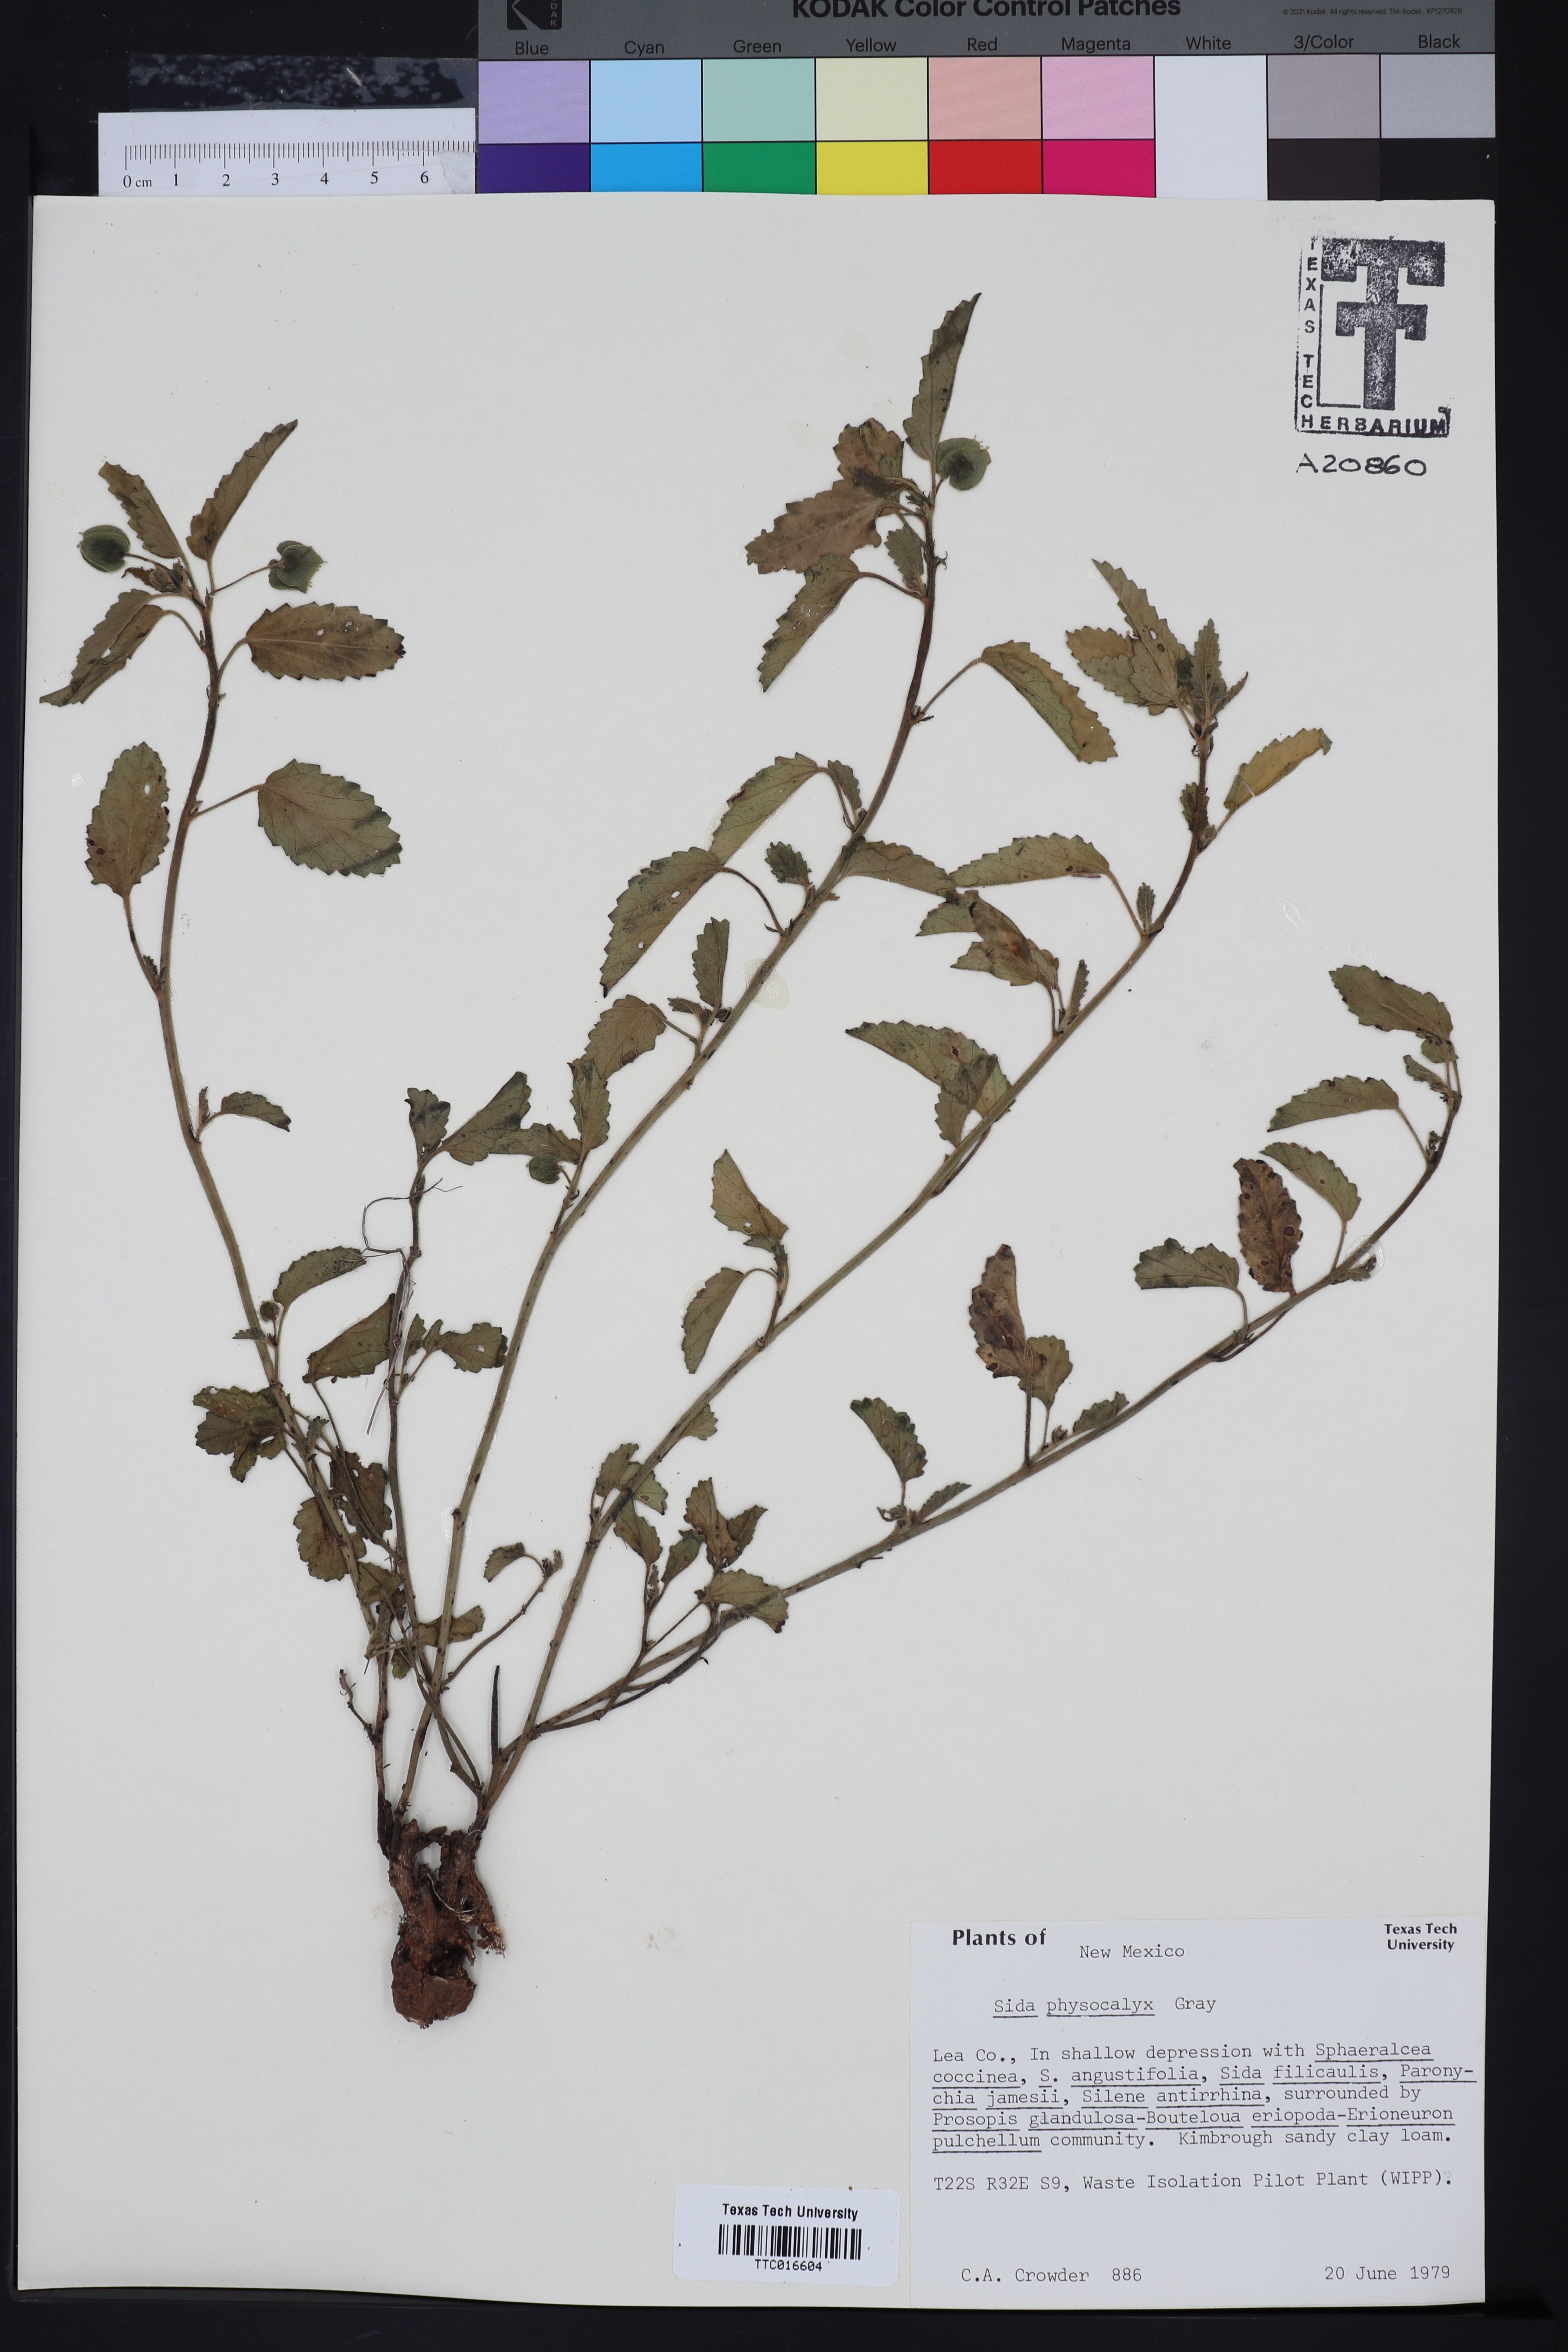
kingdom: Plantae
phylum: Tracheophyta
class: Magnoliopsida
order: Malvales
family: Malvaceae
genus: Rhynchosida
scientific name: Rhynchosida physocalyx
